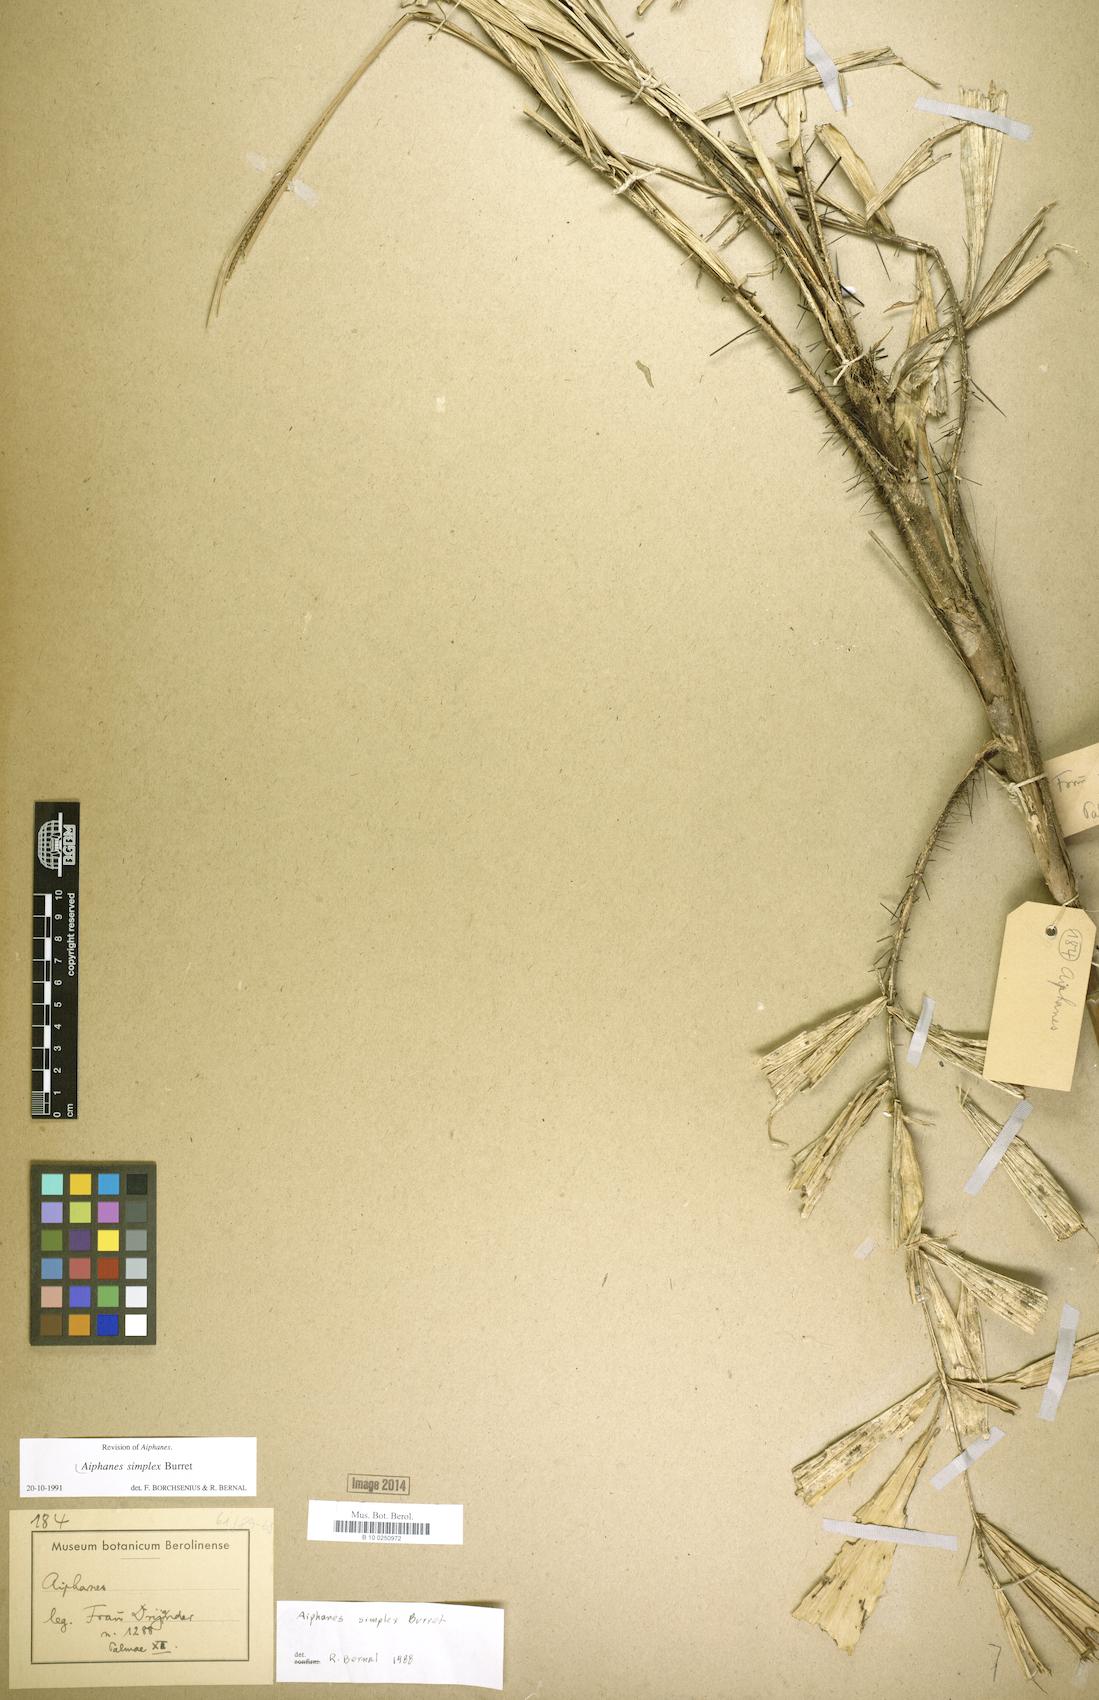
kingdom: Plantae
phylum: Tracheophyta
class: Liliopsida
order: Arecales
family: Arecaceae
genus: Aiphanes
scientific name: Aiphanes simplex
